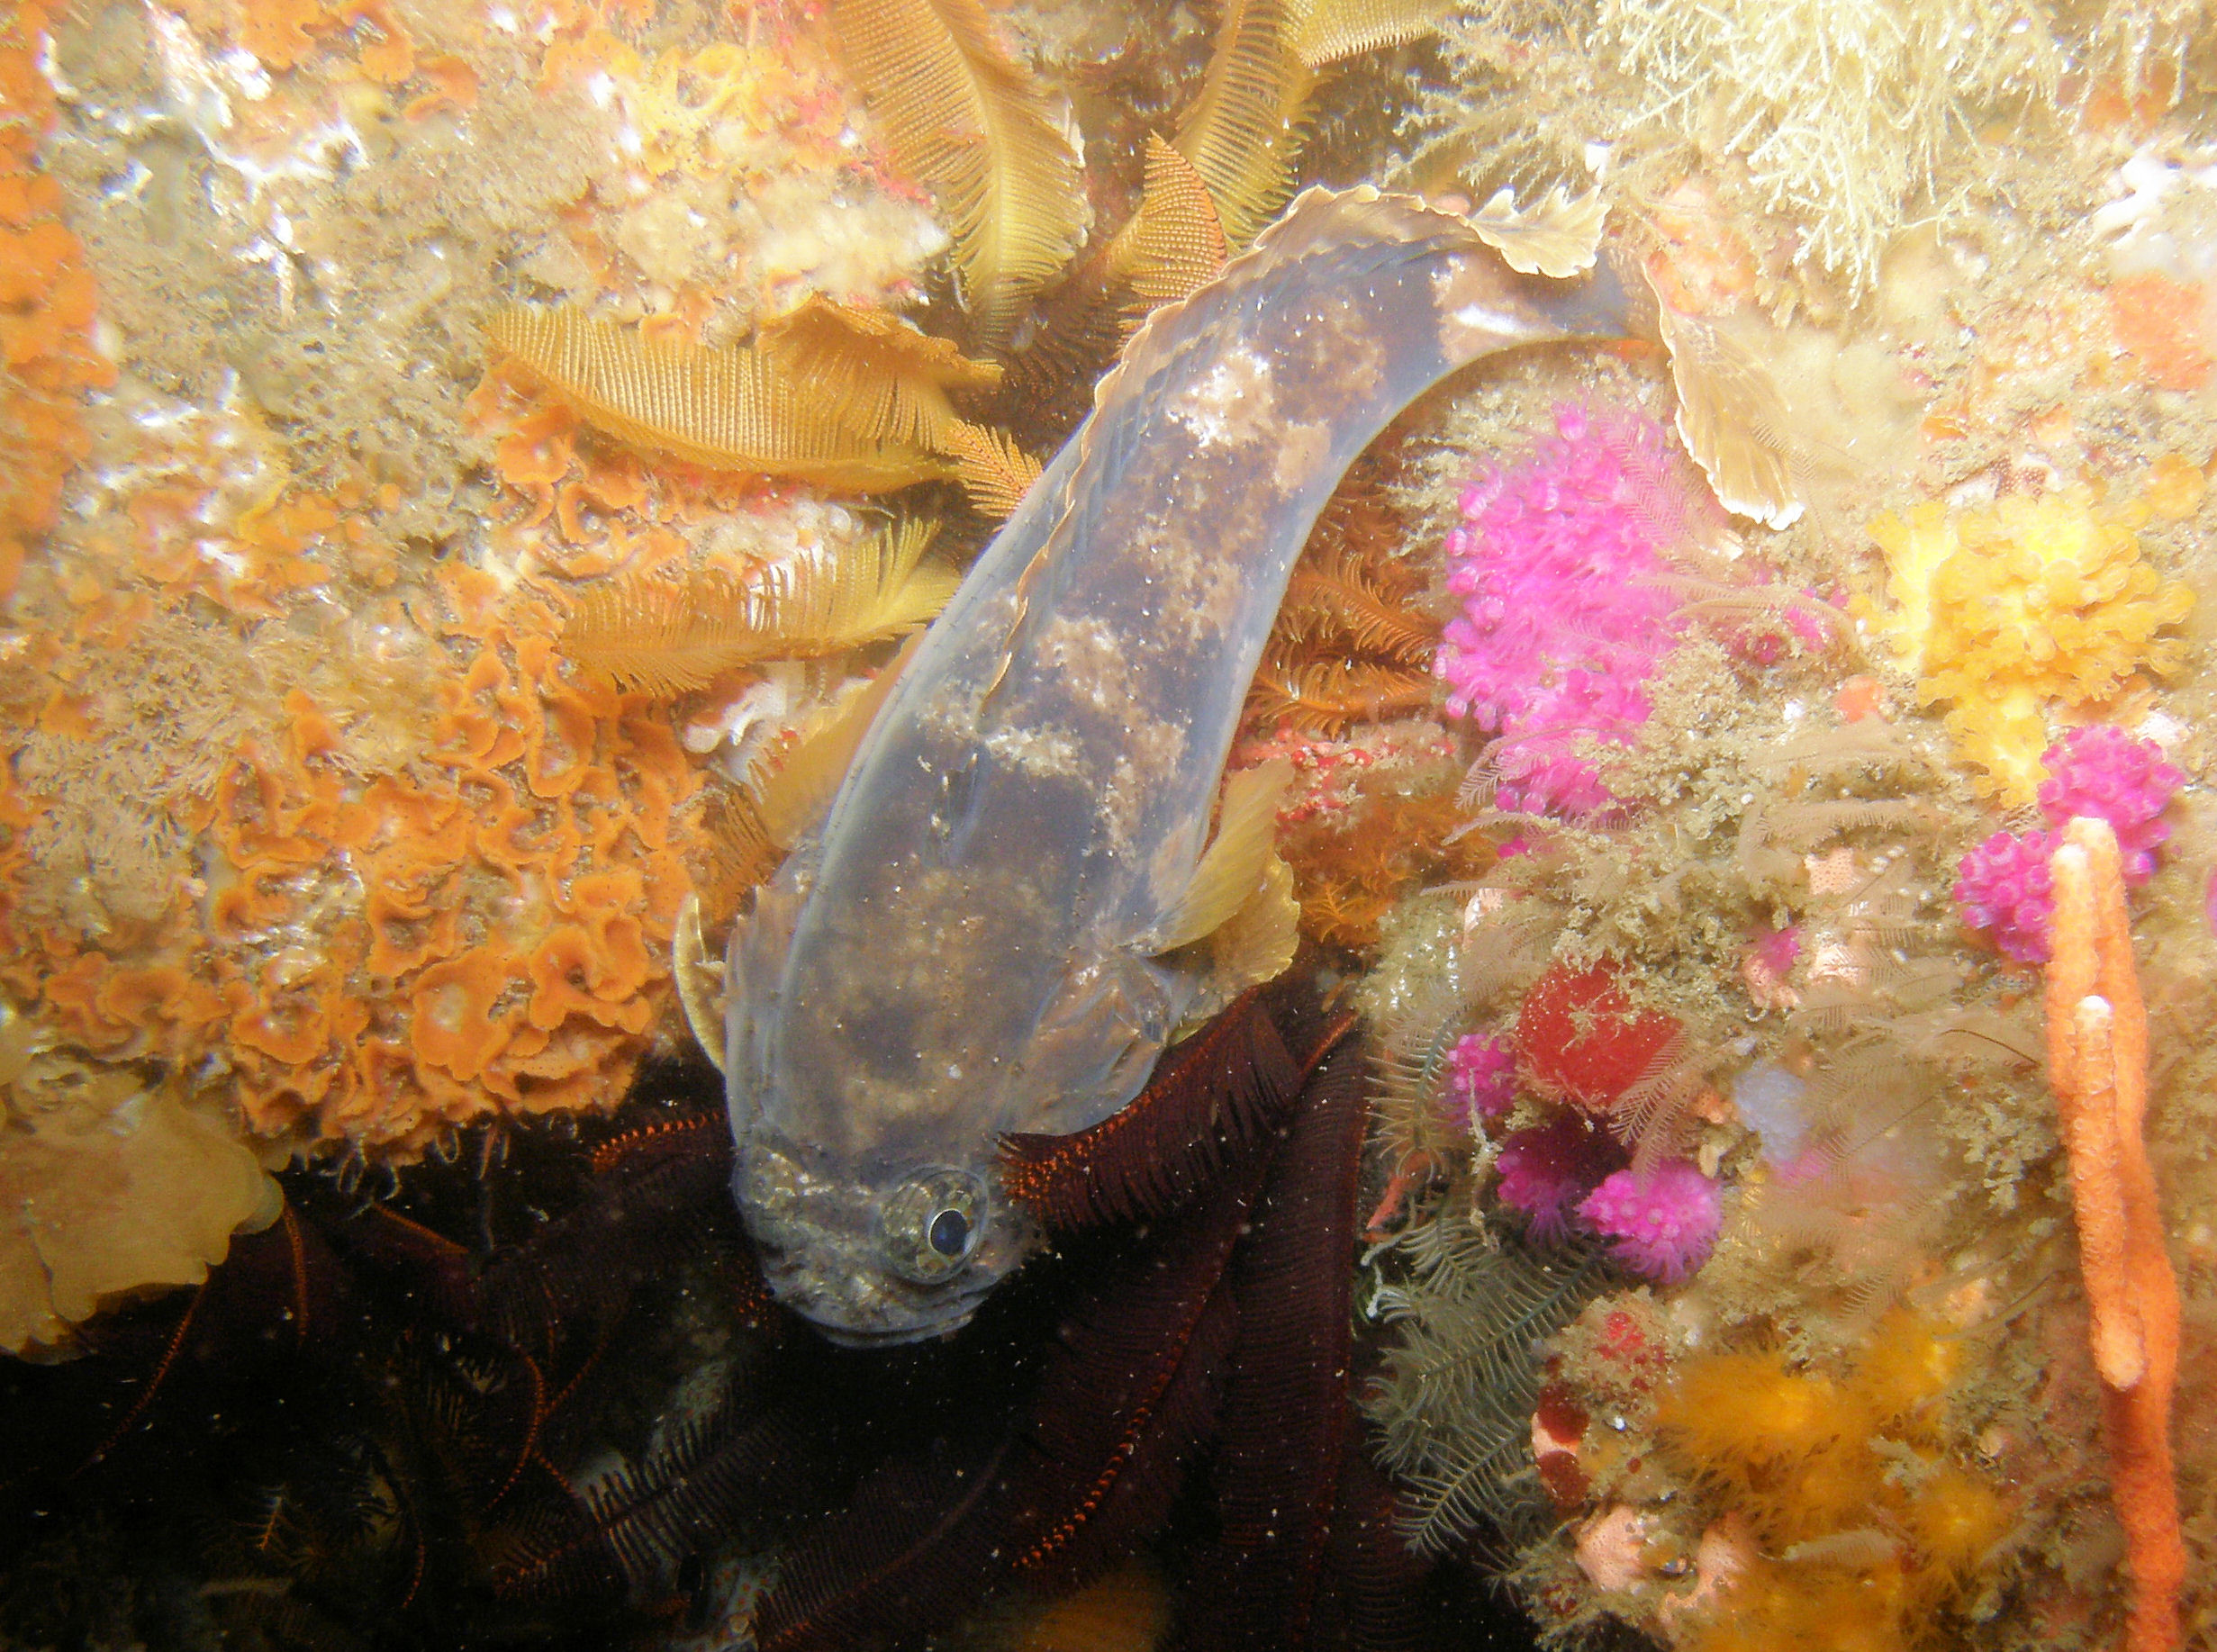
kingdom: Animalia
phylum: Chordata
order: Batrachoidiformes
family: Batrachoididae
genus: Austrobatrachus
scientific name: Austrobatrachus foedus
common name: Puzzled toadfish
